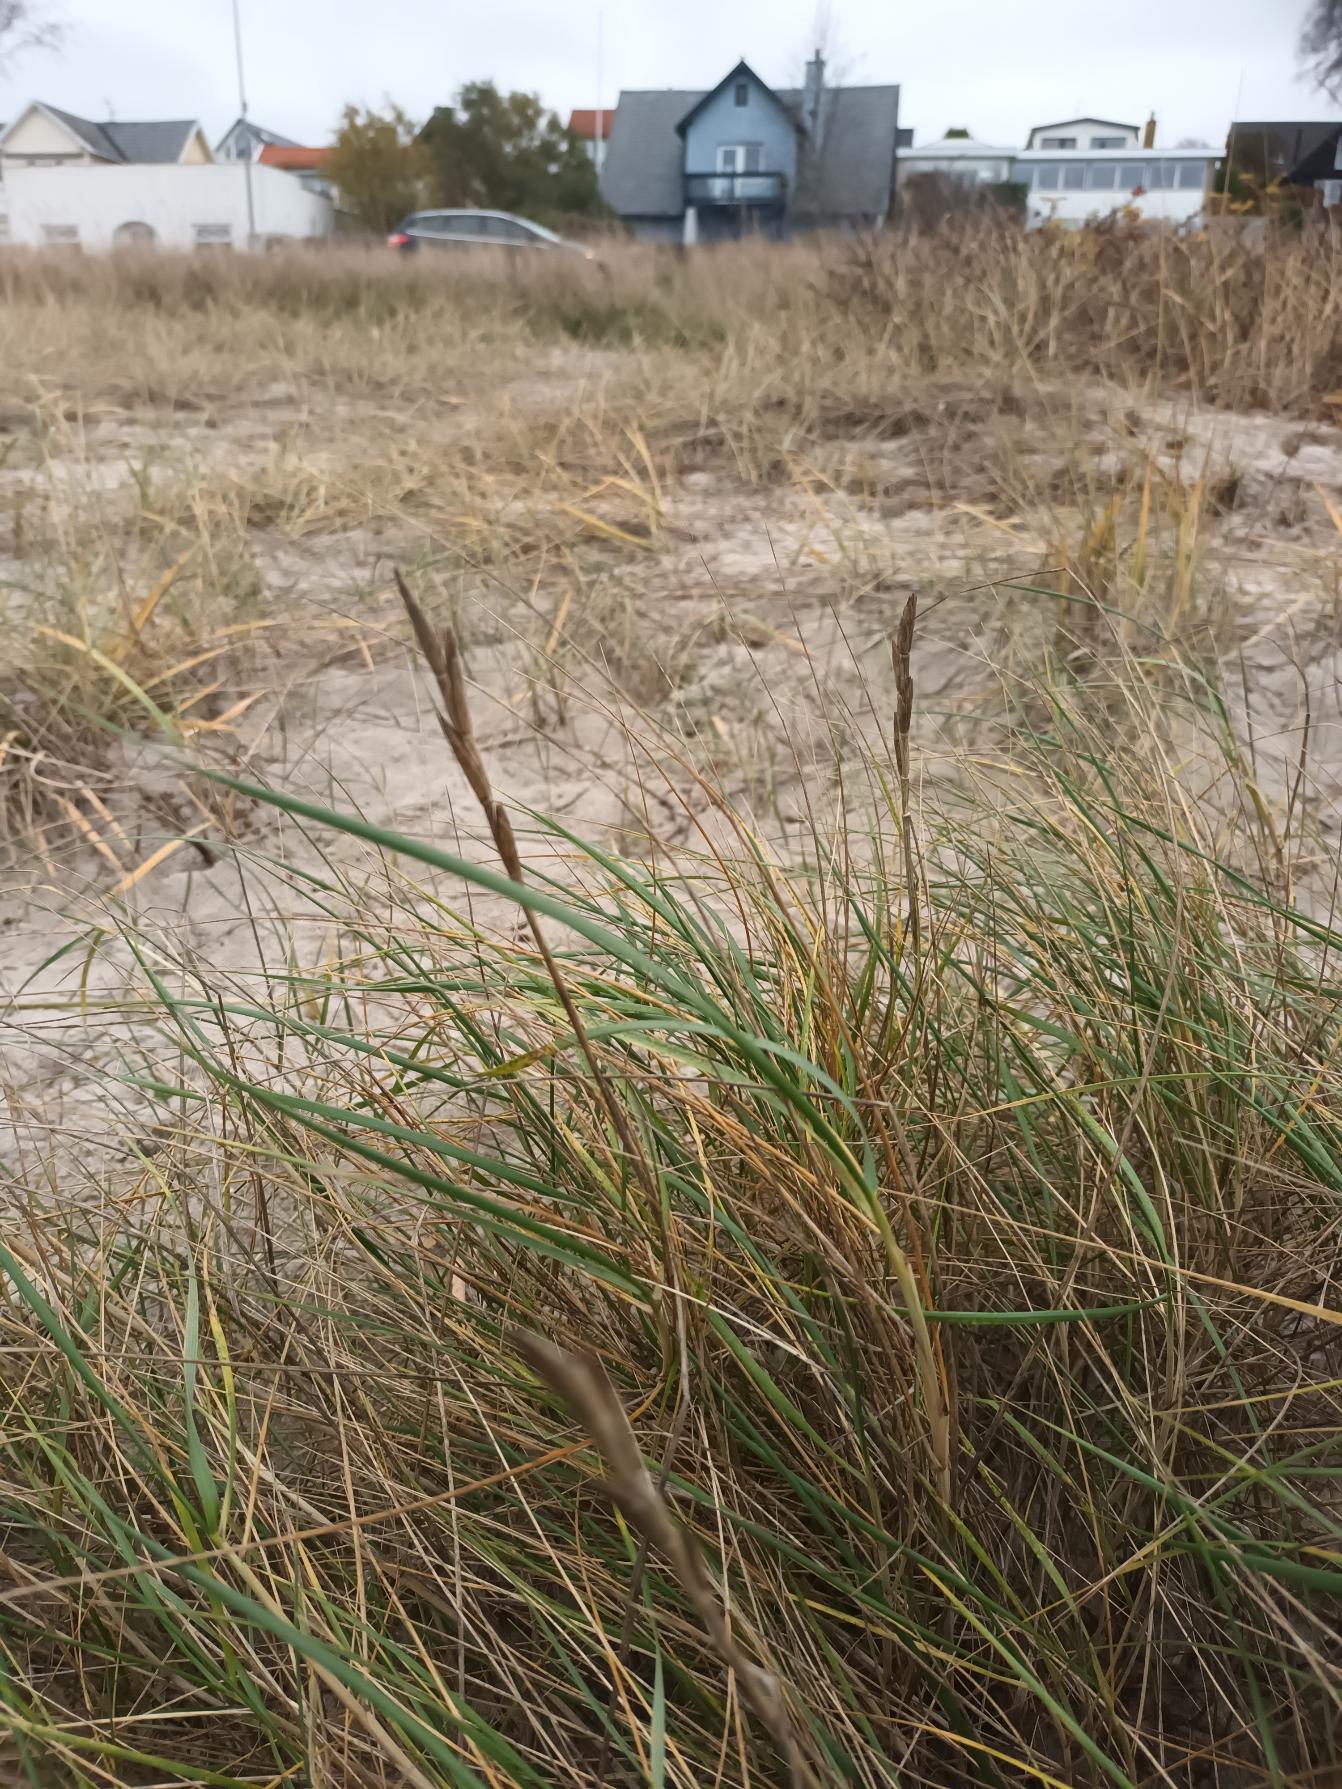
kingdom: Plantae
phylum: Tracheophyta
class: Liliopsida
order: Poales
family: Poaceae
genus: Thinopyrum
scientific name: Thinopyrum junceum
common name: Strand-kvik
